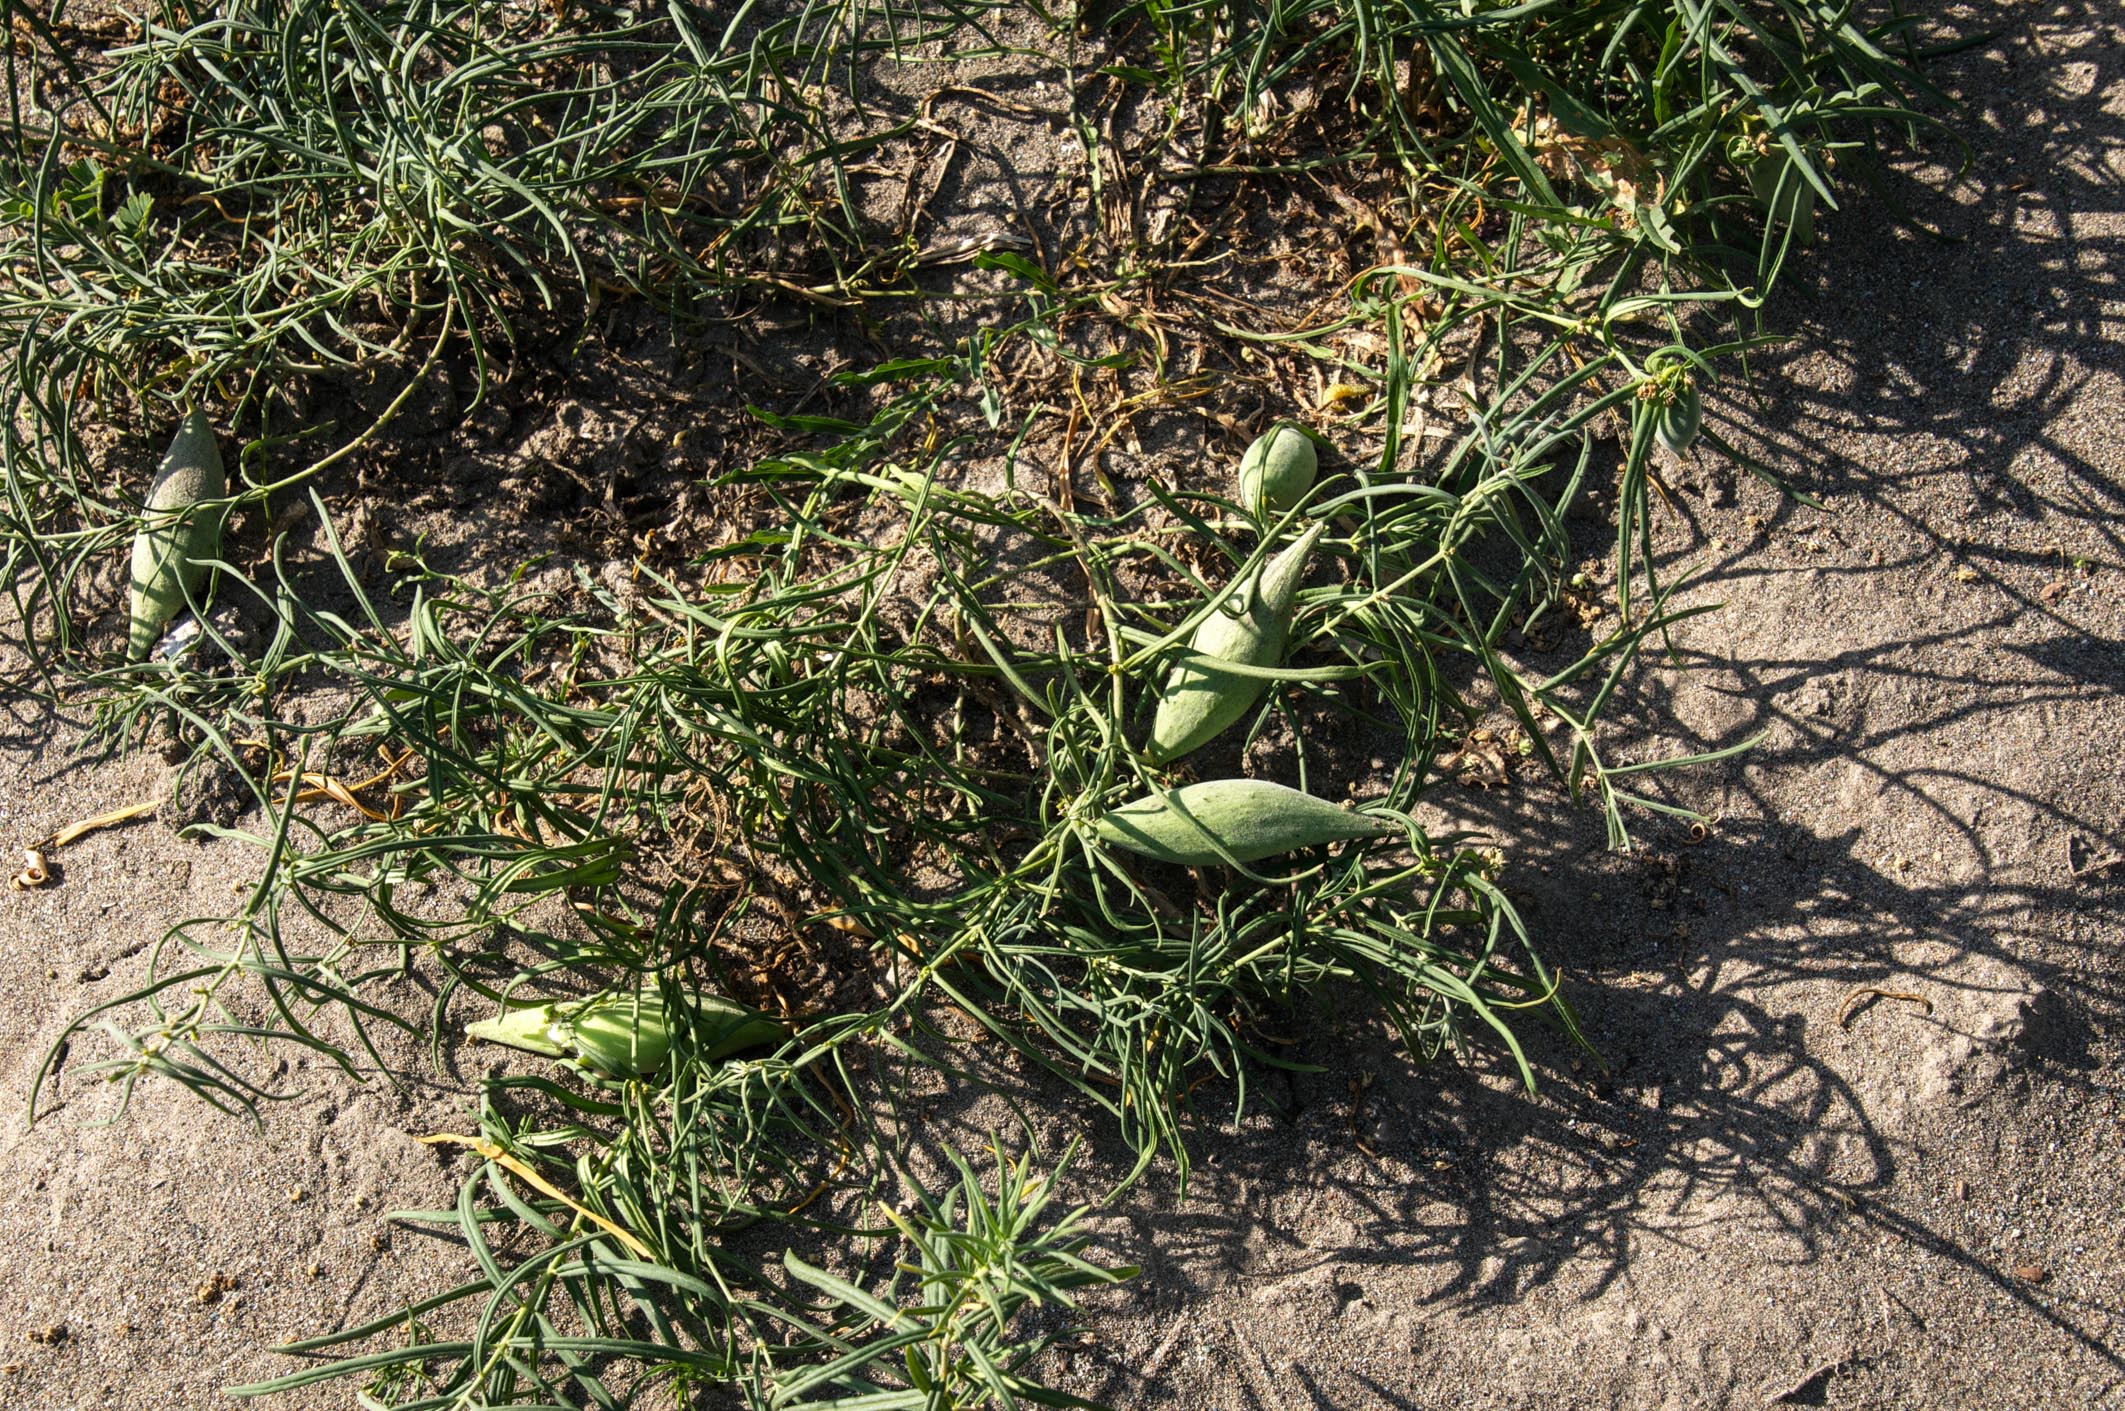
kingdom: Plantae
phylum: Tracheophyta
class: Magnoliopsida
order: Gentianales
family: Apocynaceae
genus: Cynanchum
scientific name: Cynanchum thesioides
